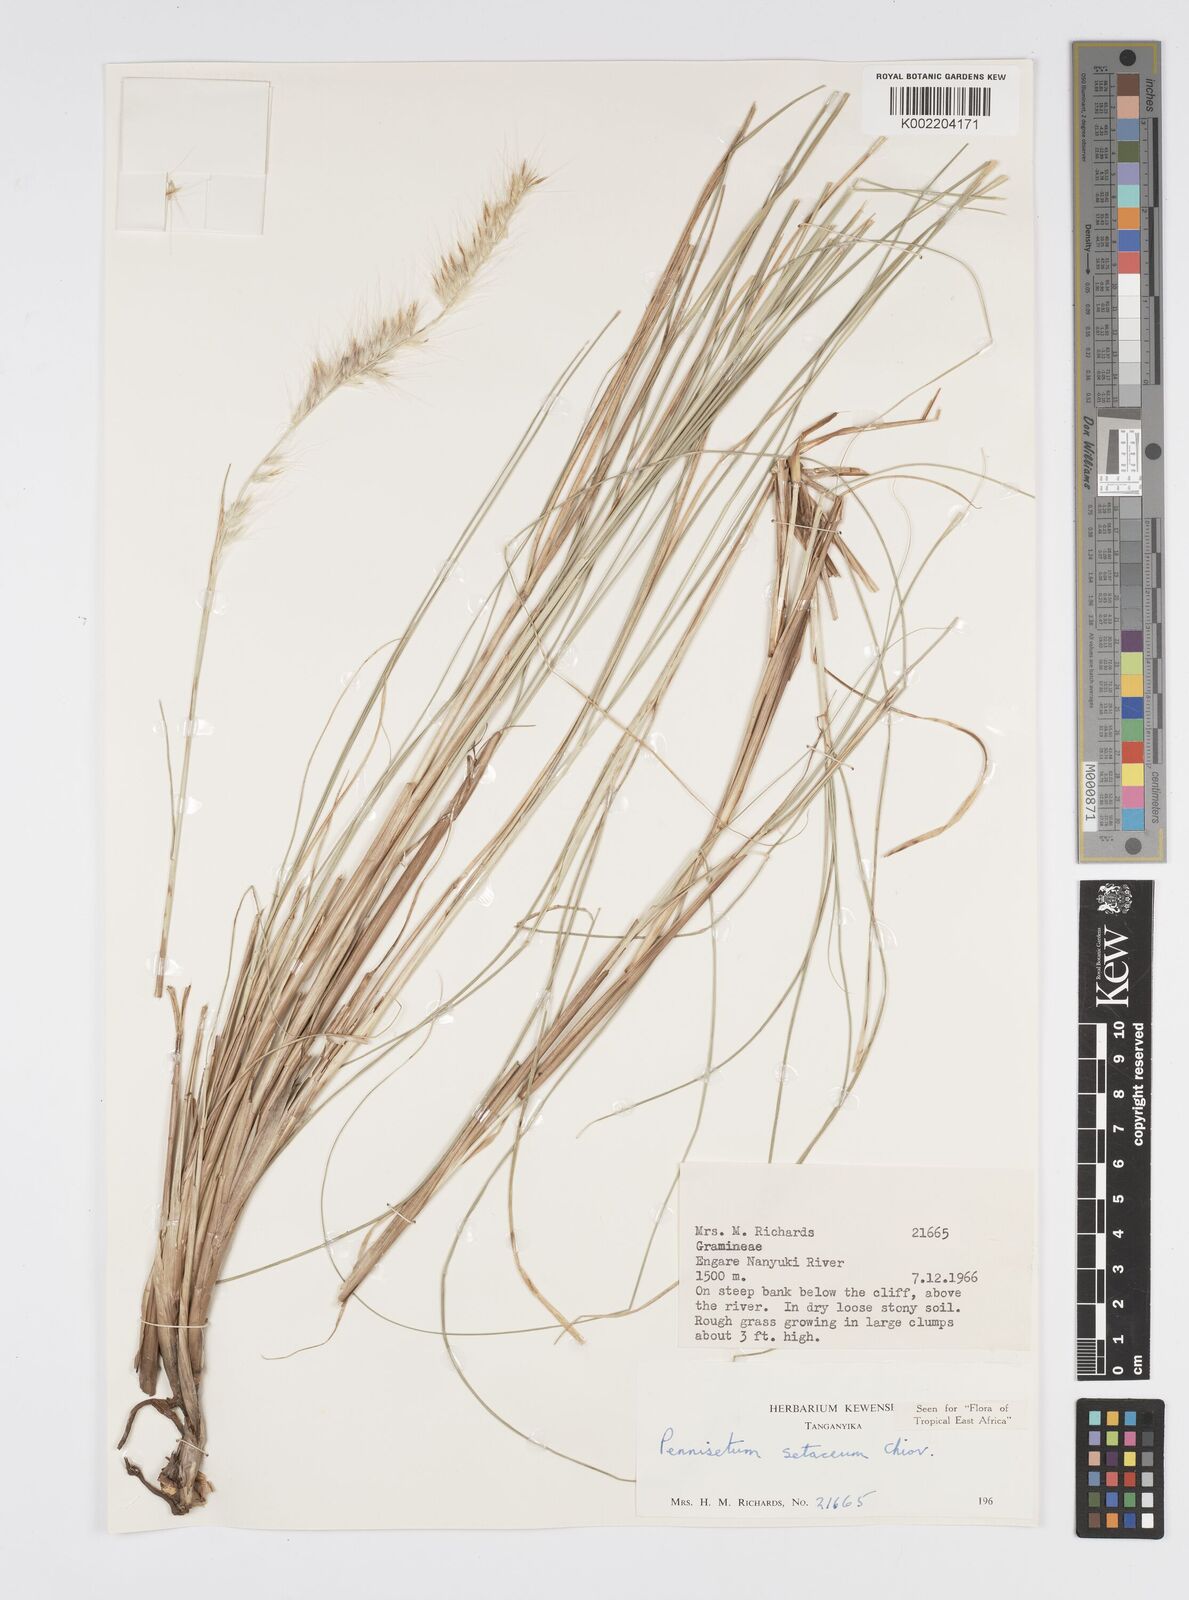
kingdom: Plantae
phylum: Tracheophyta
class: Liliopsida
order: Poales
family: Poaceae
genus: Cenchrus
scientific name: Cenchrus setaceus
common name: Crimson fountaingrass
